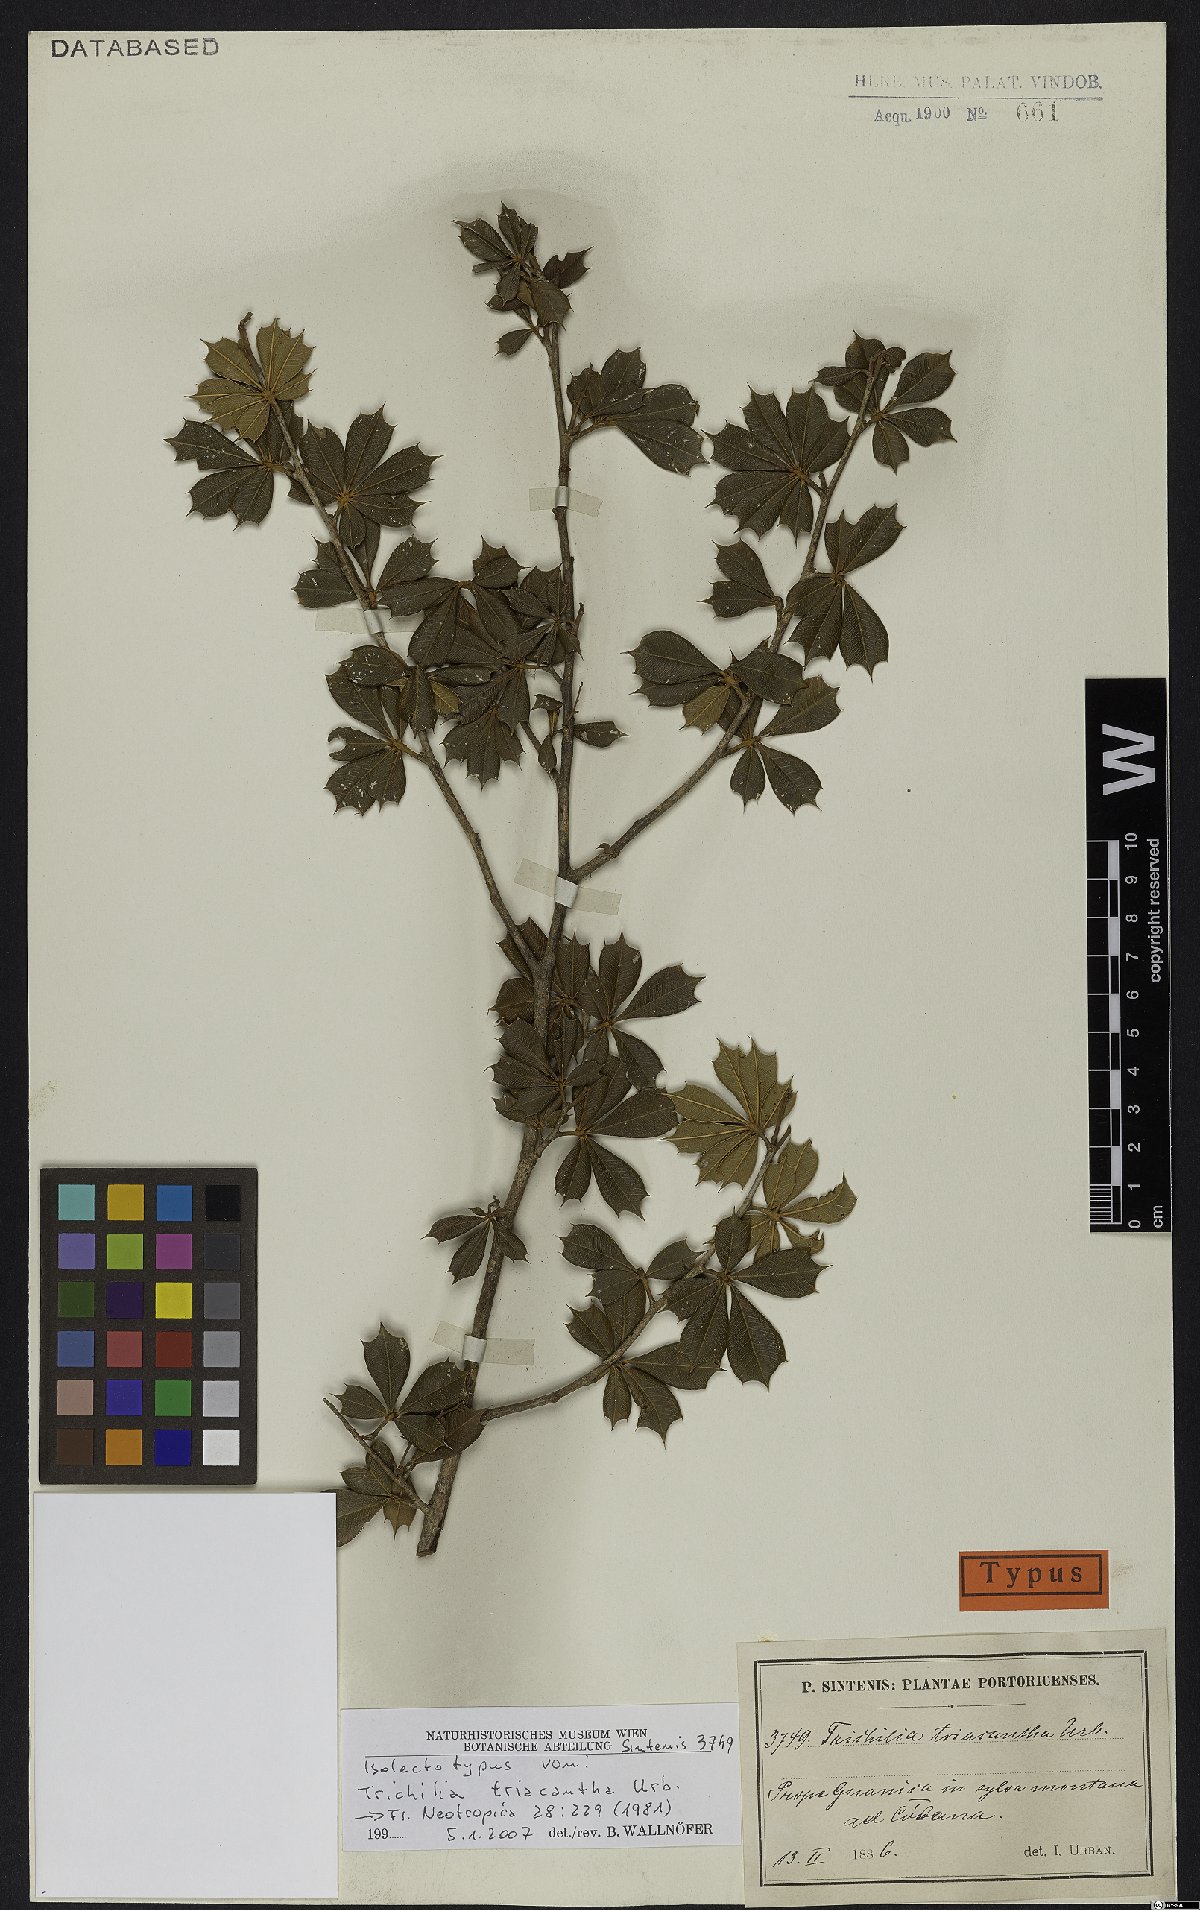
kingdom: Plantae
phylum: Tracheophyta
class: Magnoliopsida
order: Sapindales
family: Meliaceae
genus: Trichilia
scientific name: Trichilia triacantha
